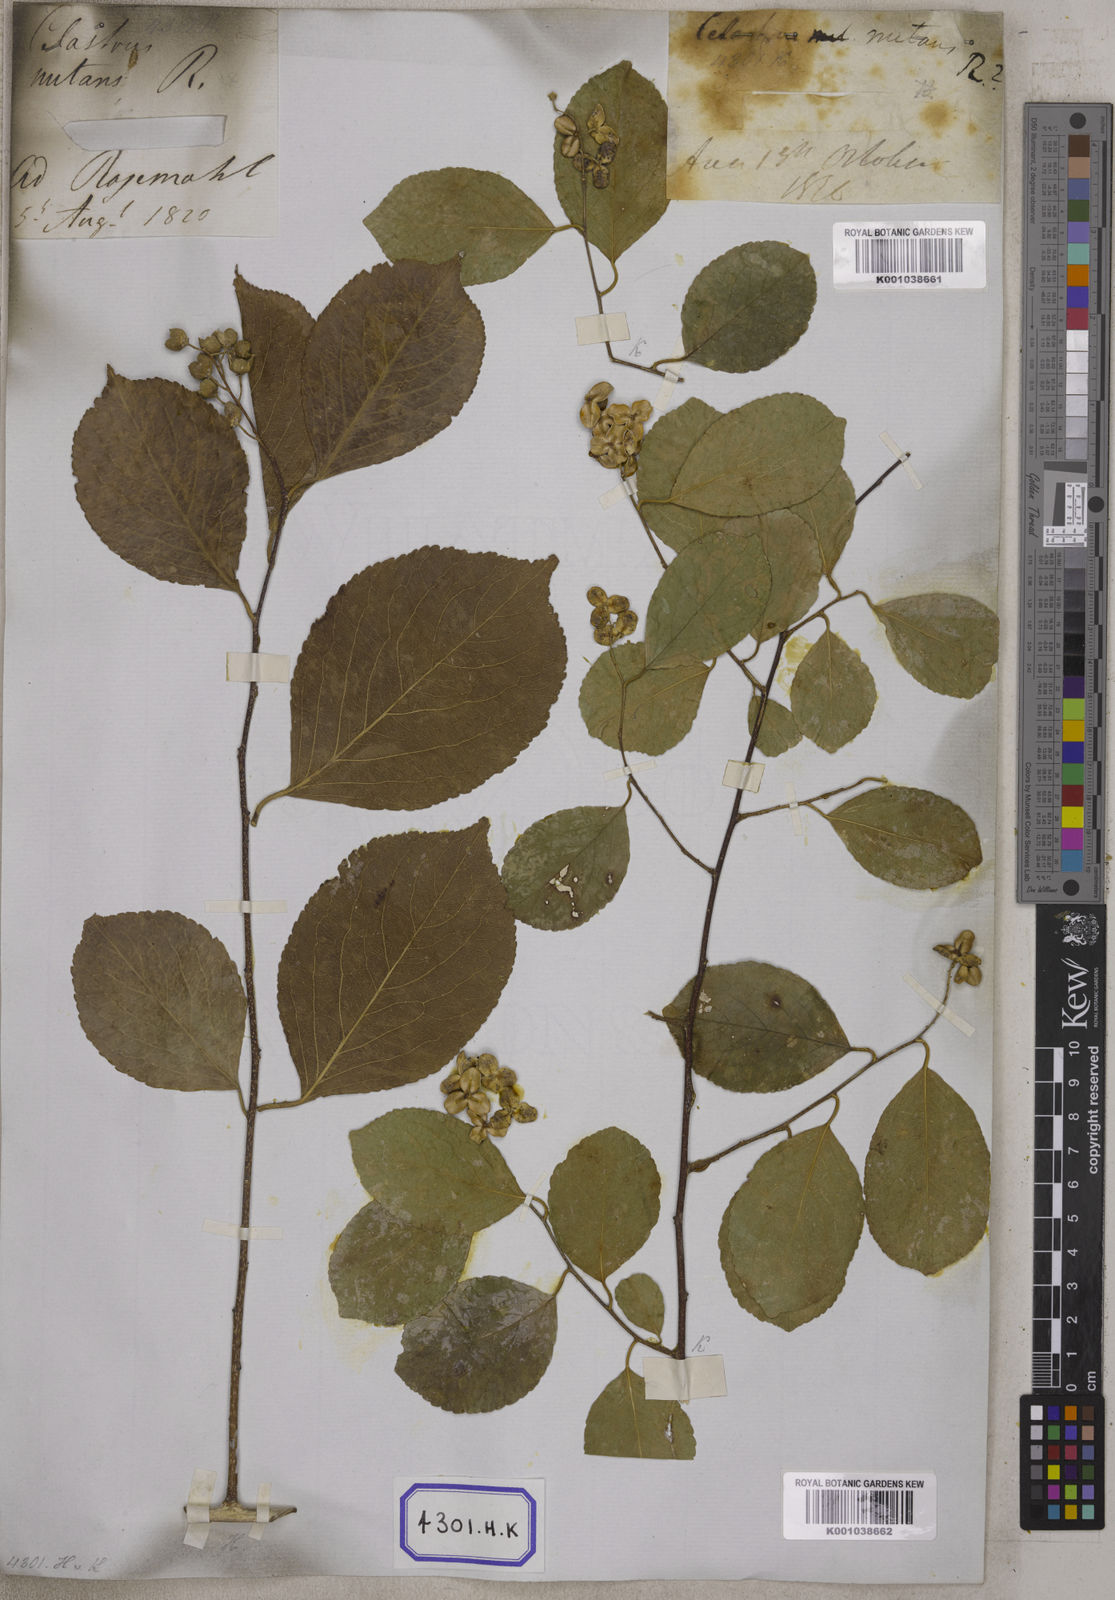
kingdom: Plantae
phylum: Tracheophyta
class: Magnoliopsida
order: Celastrales
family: Celastraceae
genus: Celastrus
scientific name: Celastrus paniculatus
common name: Oriental bittersweet; staff vine
